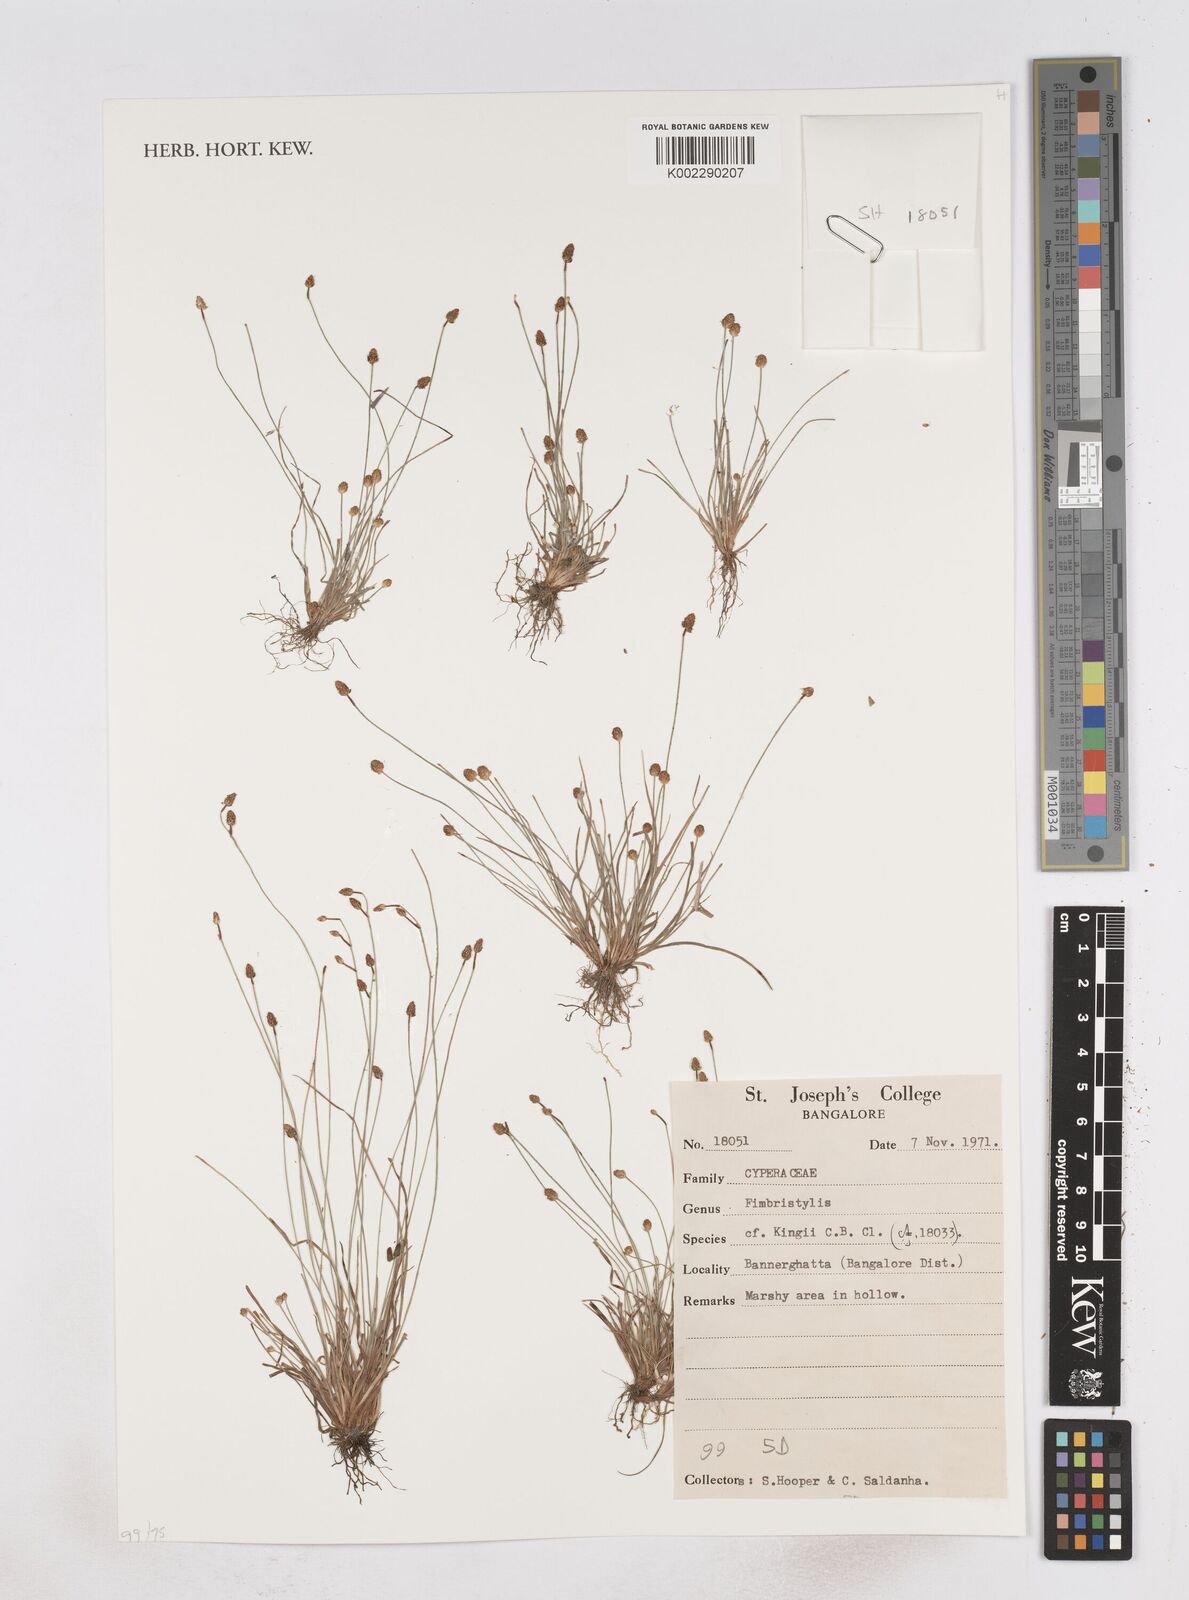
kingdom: Plantae
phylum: Tracheophyta
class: Liliopsida
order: Poales
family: Cyperaceae
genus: Fimbristylis
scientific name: Fimbristylis
